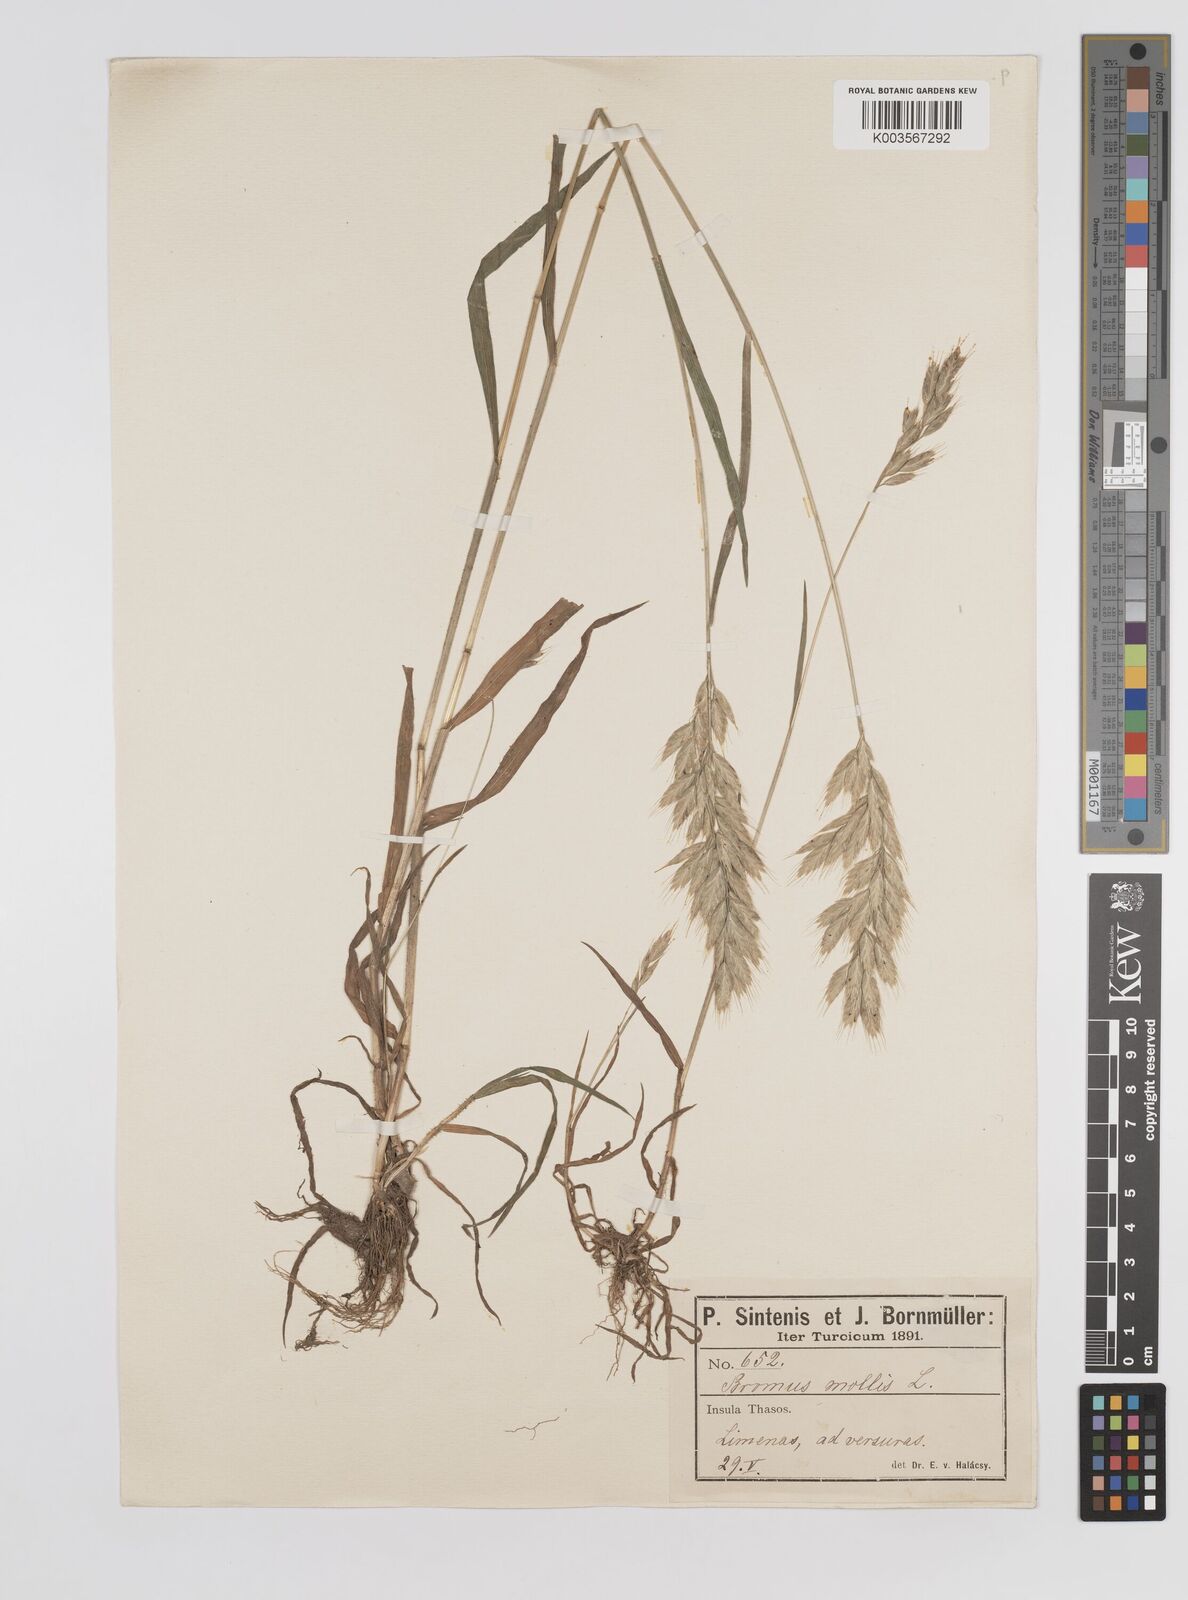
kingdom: Plantae
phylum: Tracheophyta
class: Liliopsida
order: Poales
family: Poaceae
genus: Bromus
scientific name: Bromus hordeaceus
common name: Soft brome
